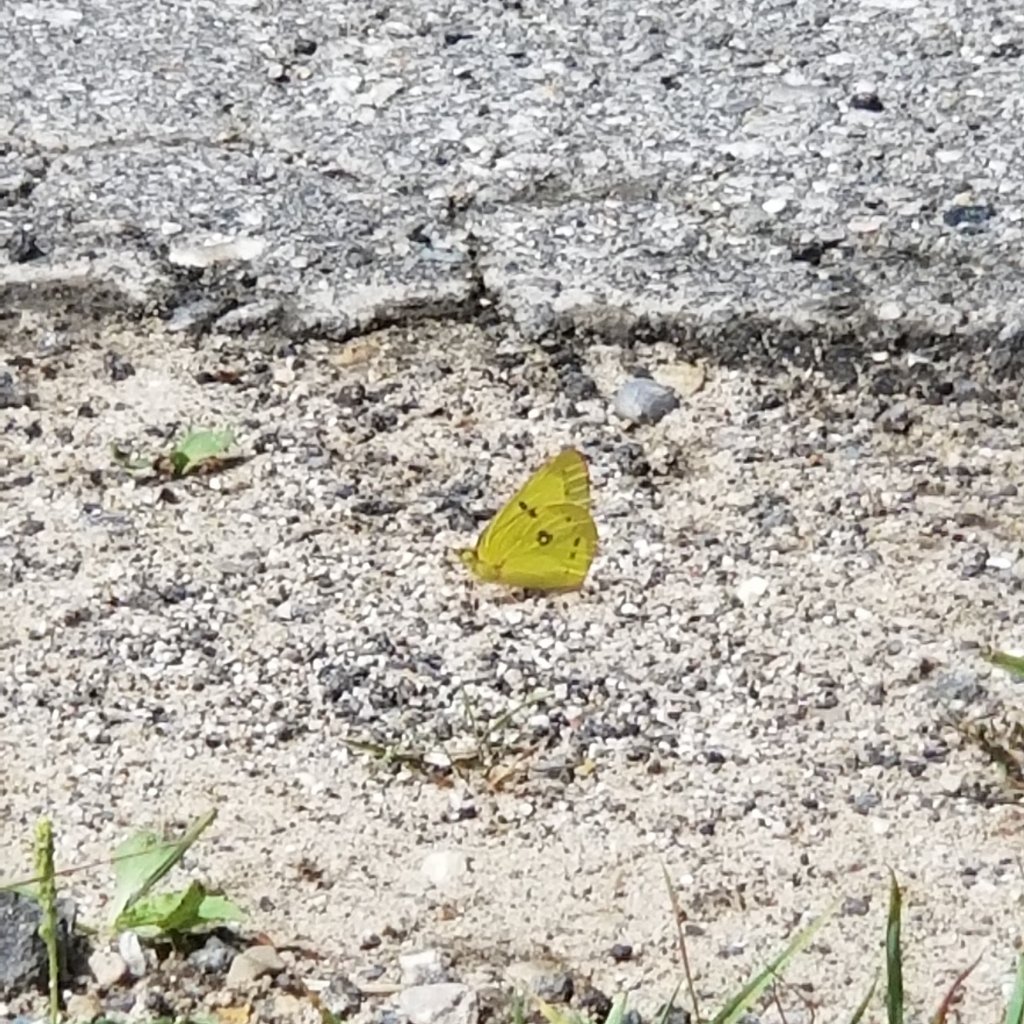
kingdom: Animalia
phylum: Arthropoda
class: Insecta
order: Lepidoptera
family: Pieridae
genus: Colias
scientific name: Colias philodice
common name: Clouded Sulphur
